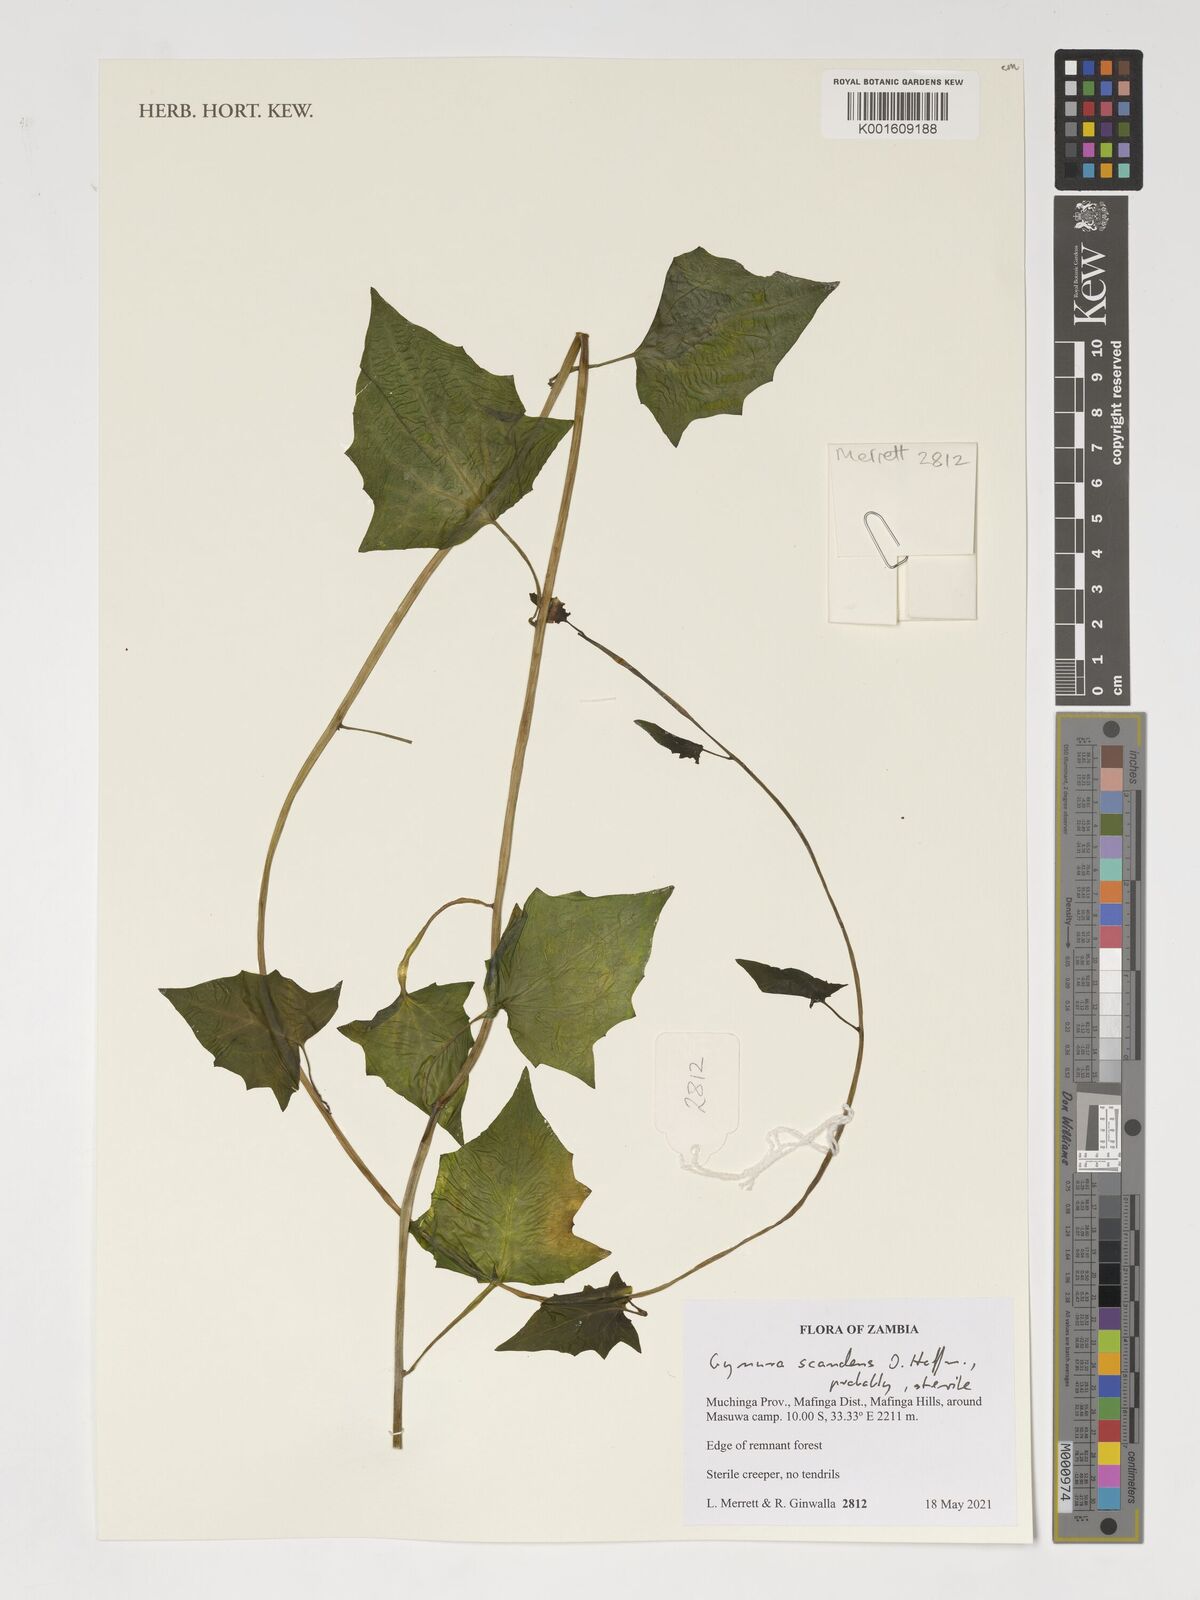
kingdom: Plantae
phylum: Tracheophyta
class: Magnoliopsida
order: Asterales
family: Asteraceae
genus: Gynura
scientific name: Gynura scandens
